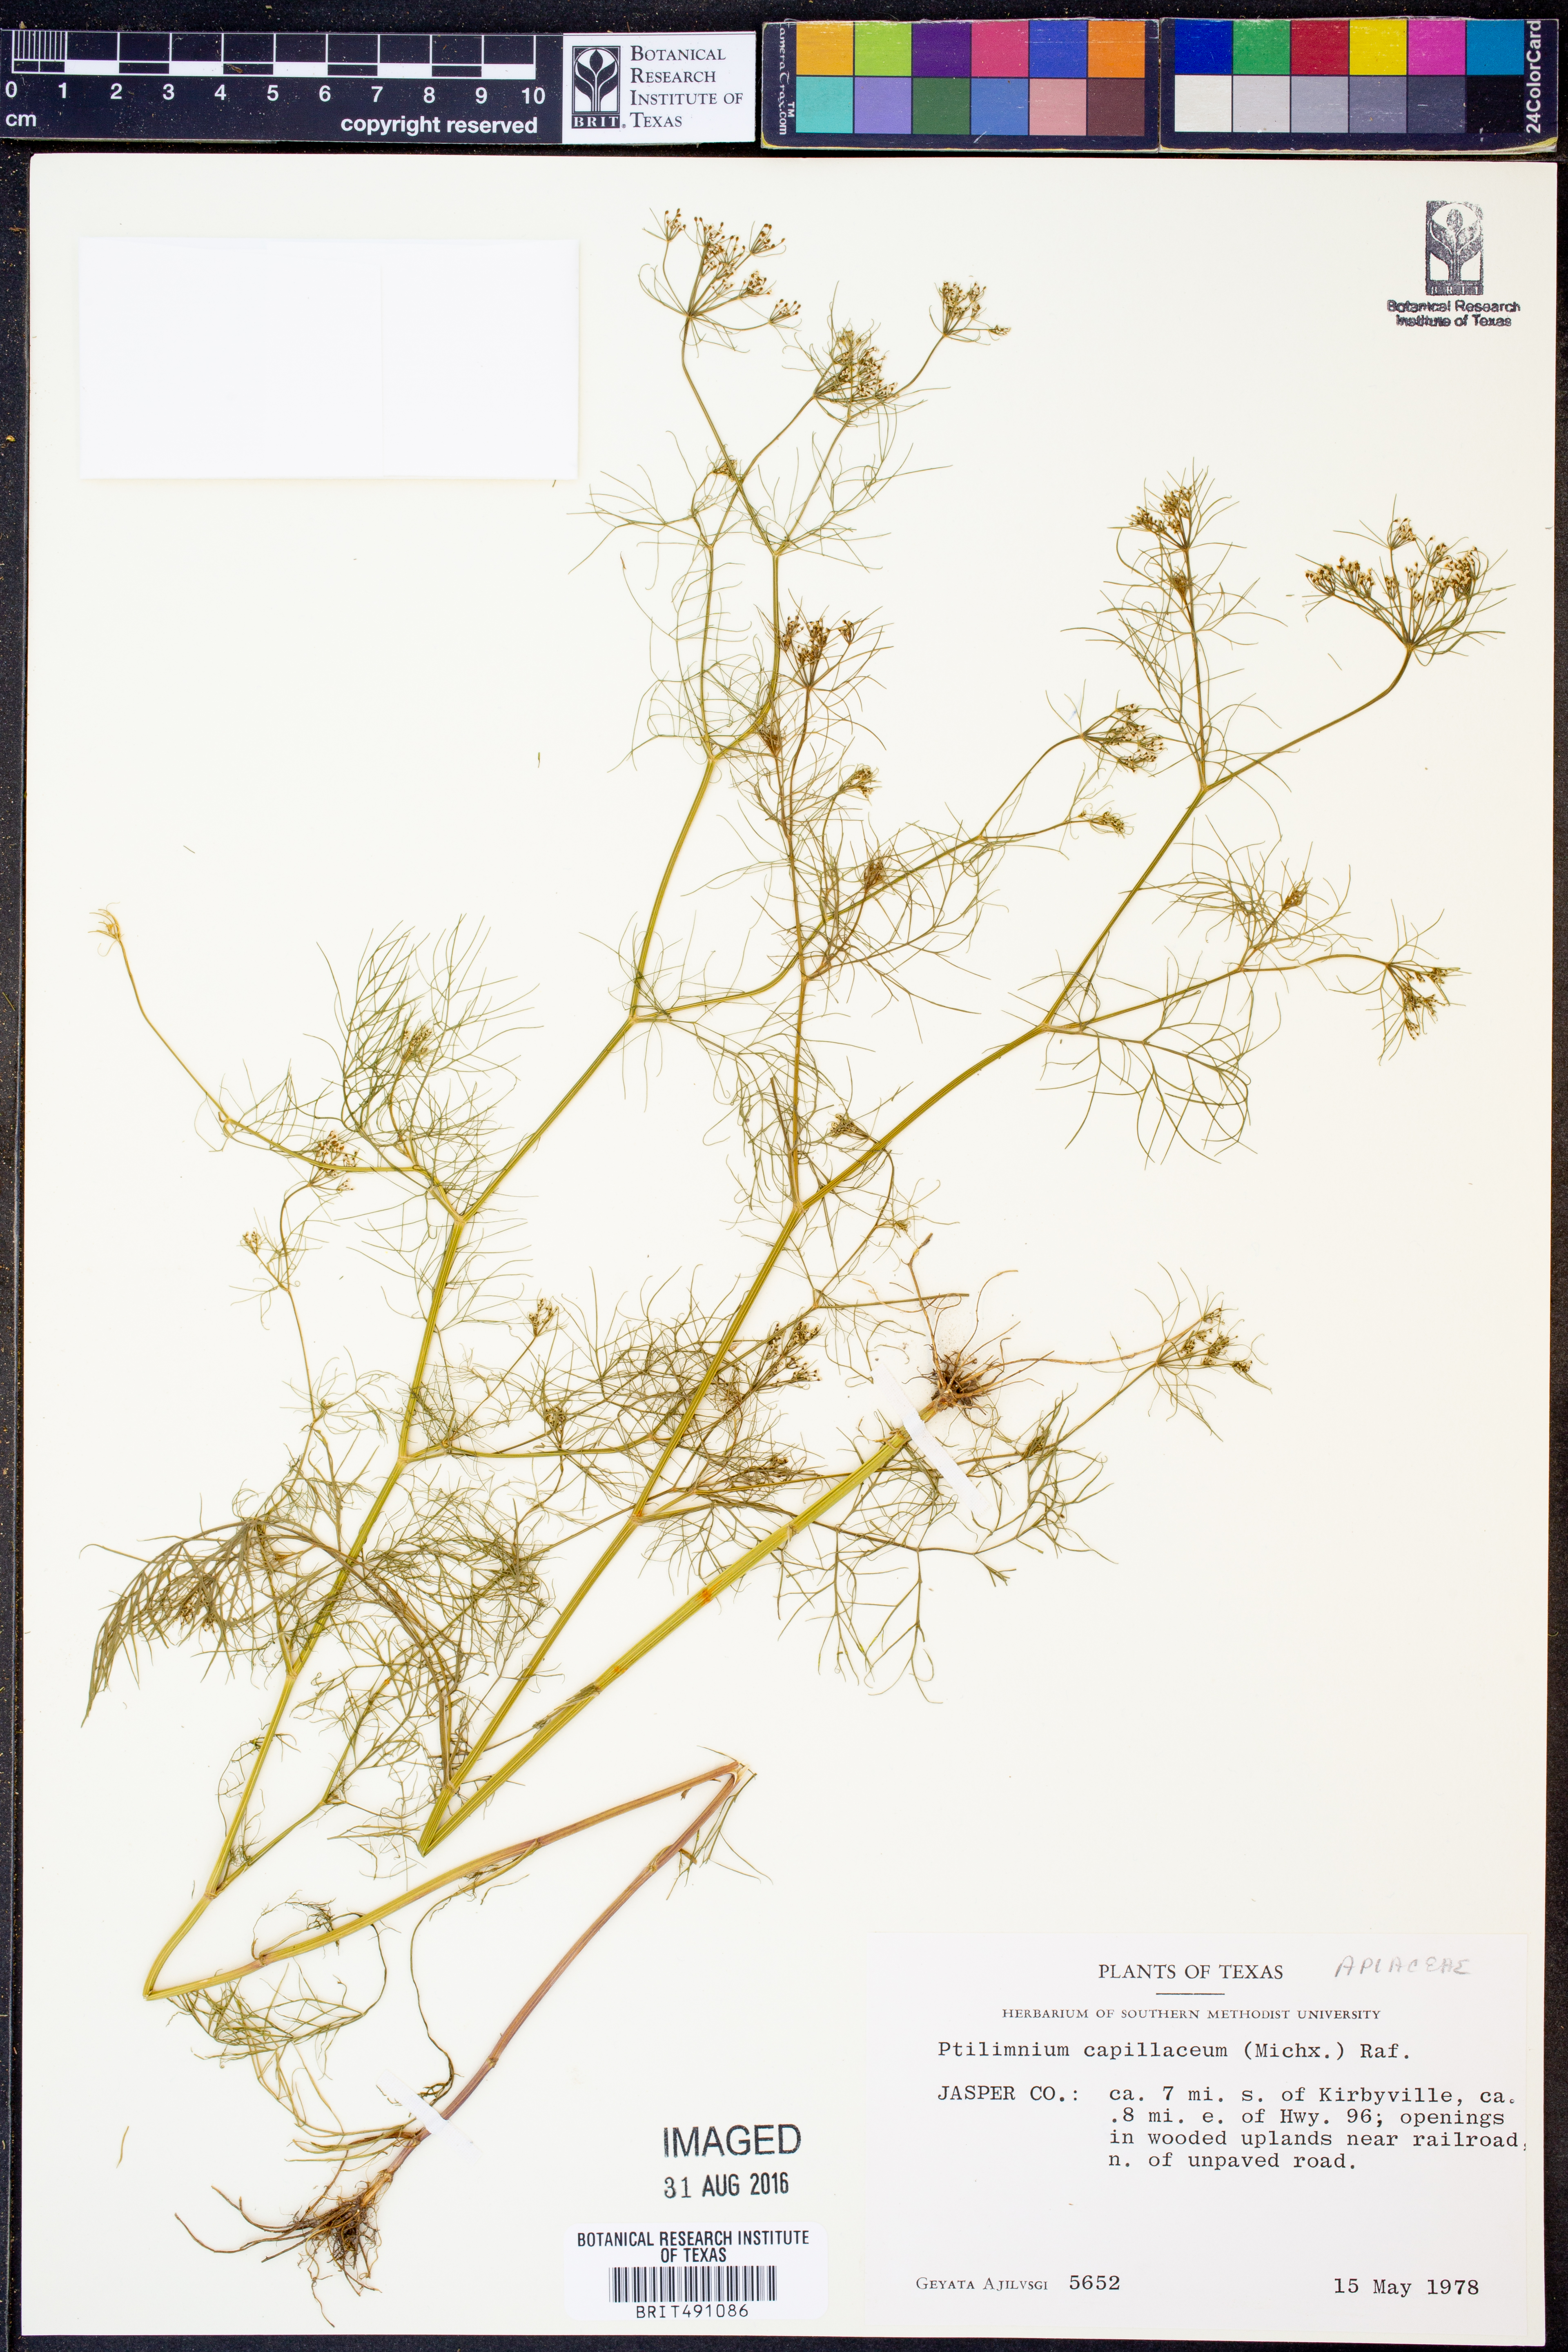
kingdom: Plantae
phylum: Tracheophyta
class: Magnoliopsida
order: Apiales
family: Apiaceae
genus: Ptilimnium
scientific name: Ptilimnium capillaceum
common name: Herbwilliam
